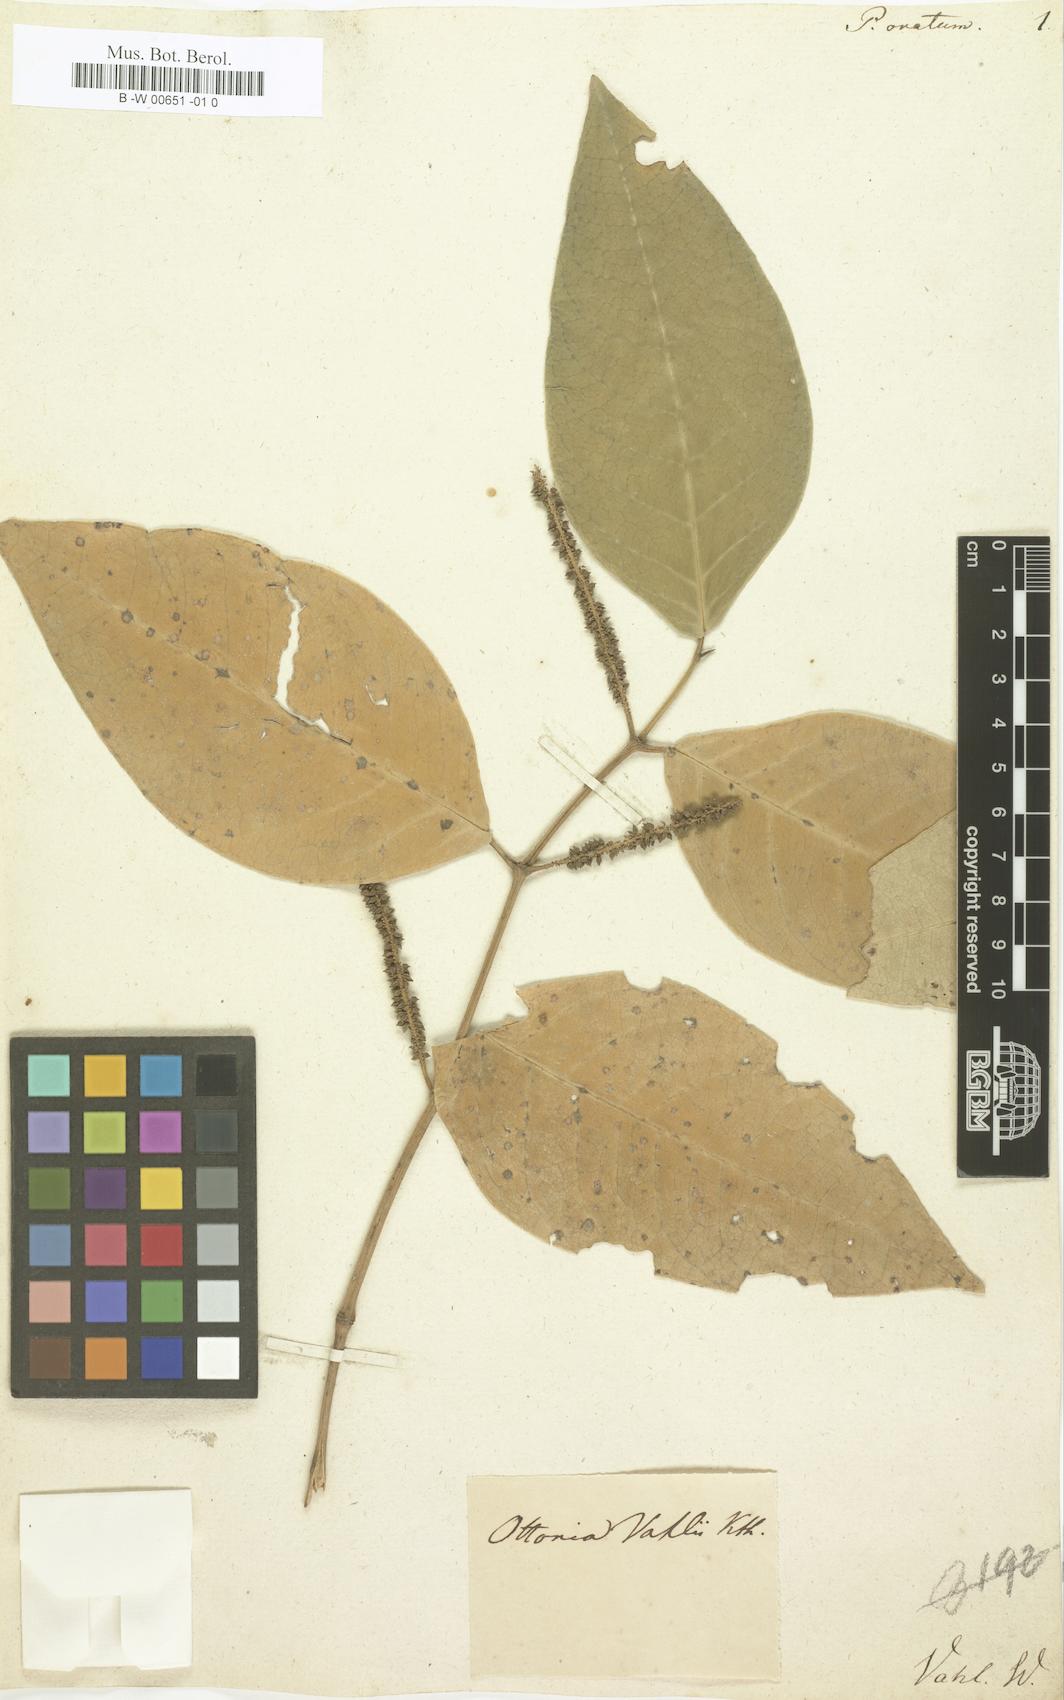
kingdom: Plantae
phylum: Tracheophyta
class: Magnoliopsida
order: Piperales
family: Piperaceae
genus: Piper
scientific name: Piper ovatum
